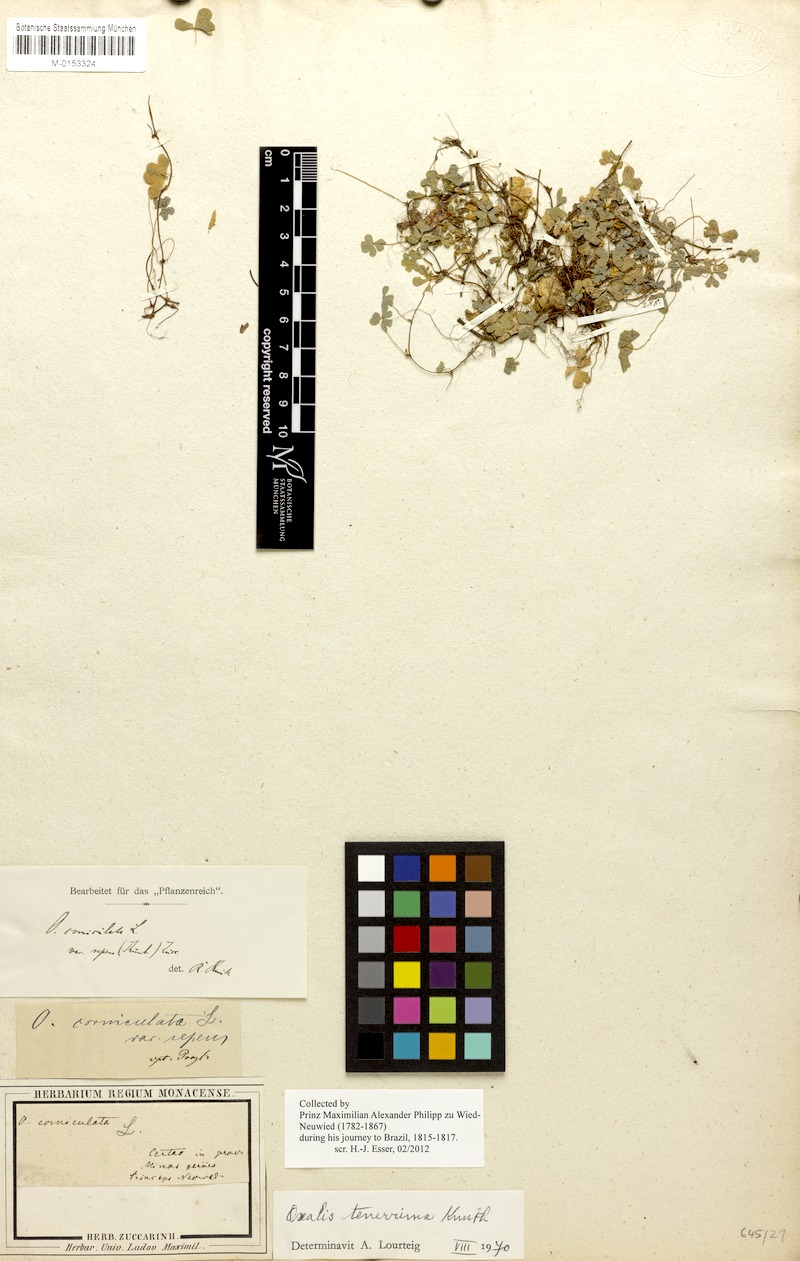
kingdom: Plantae
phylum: Tracheophyta
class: Magnoliopsida
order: Oxalidales
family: Oxalidaceae
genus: Oxalis
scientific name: Oxalis tenerrima
